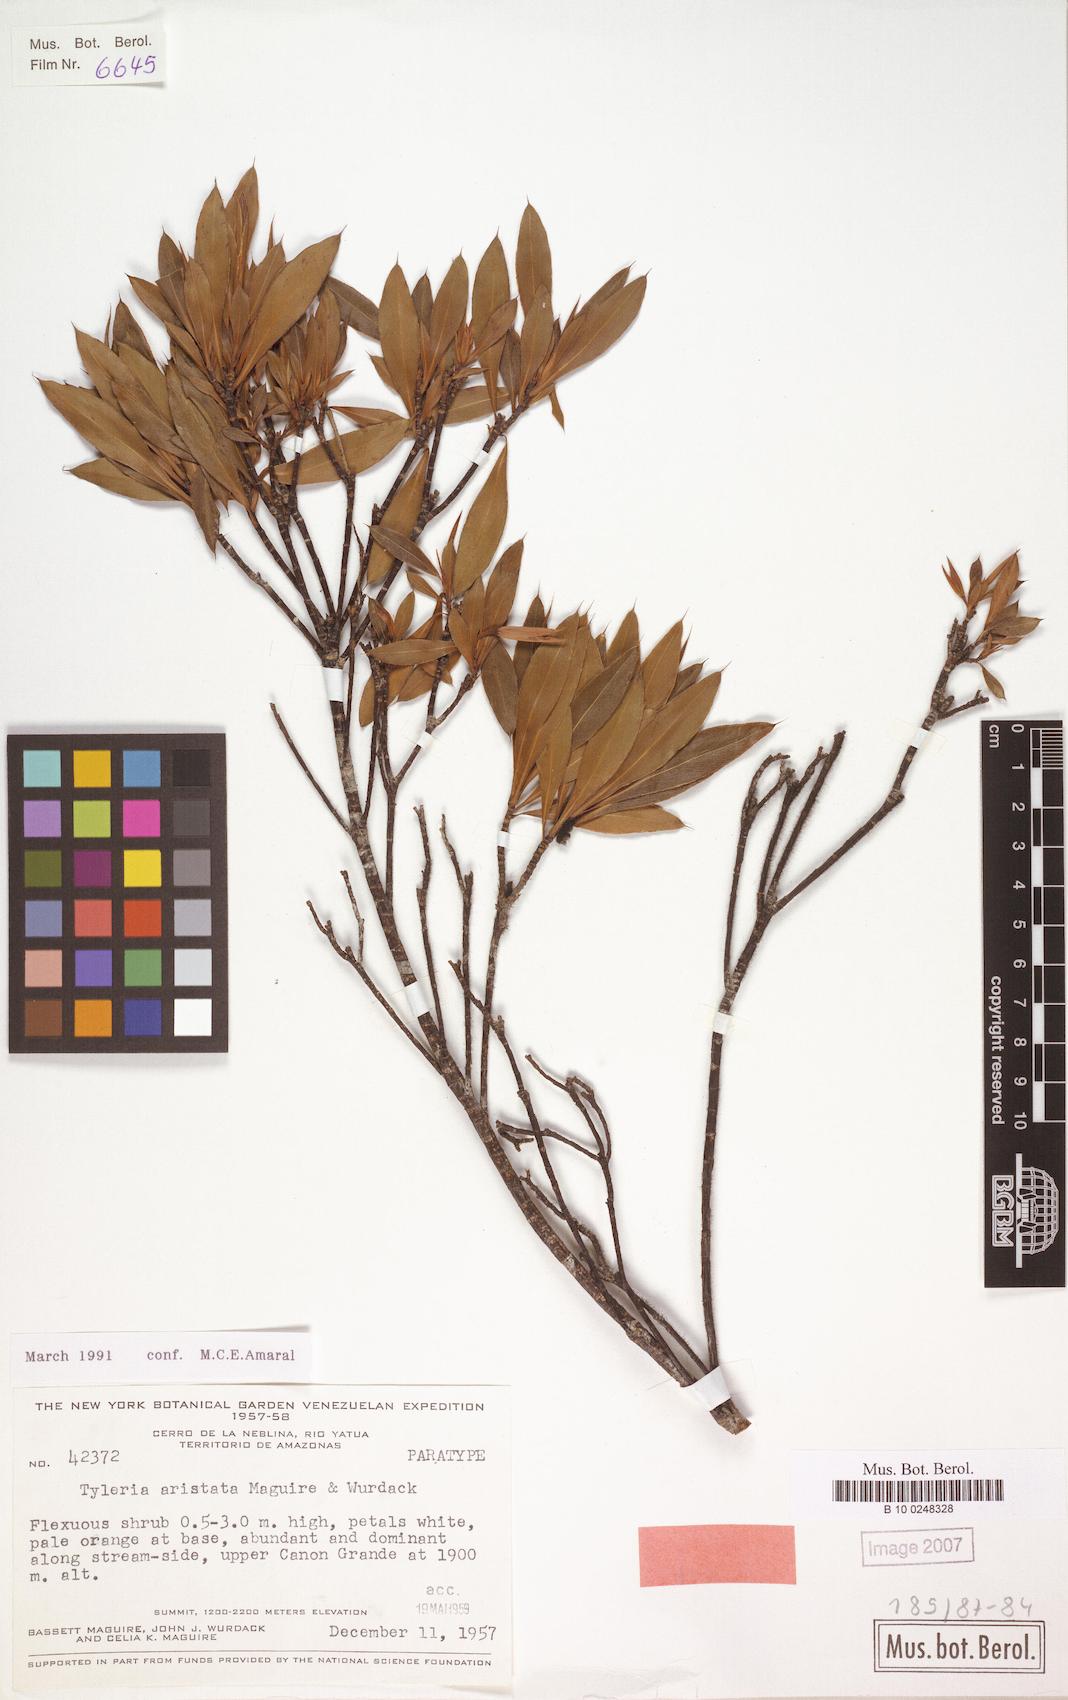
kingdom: Plantae
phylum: Tracheophyta
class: Magnoliopsida
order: Malpighiales
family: Ochnaceae
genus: Tyleria
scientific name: Tyleria aristata
